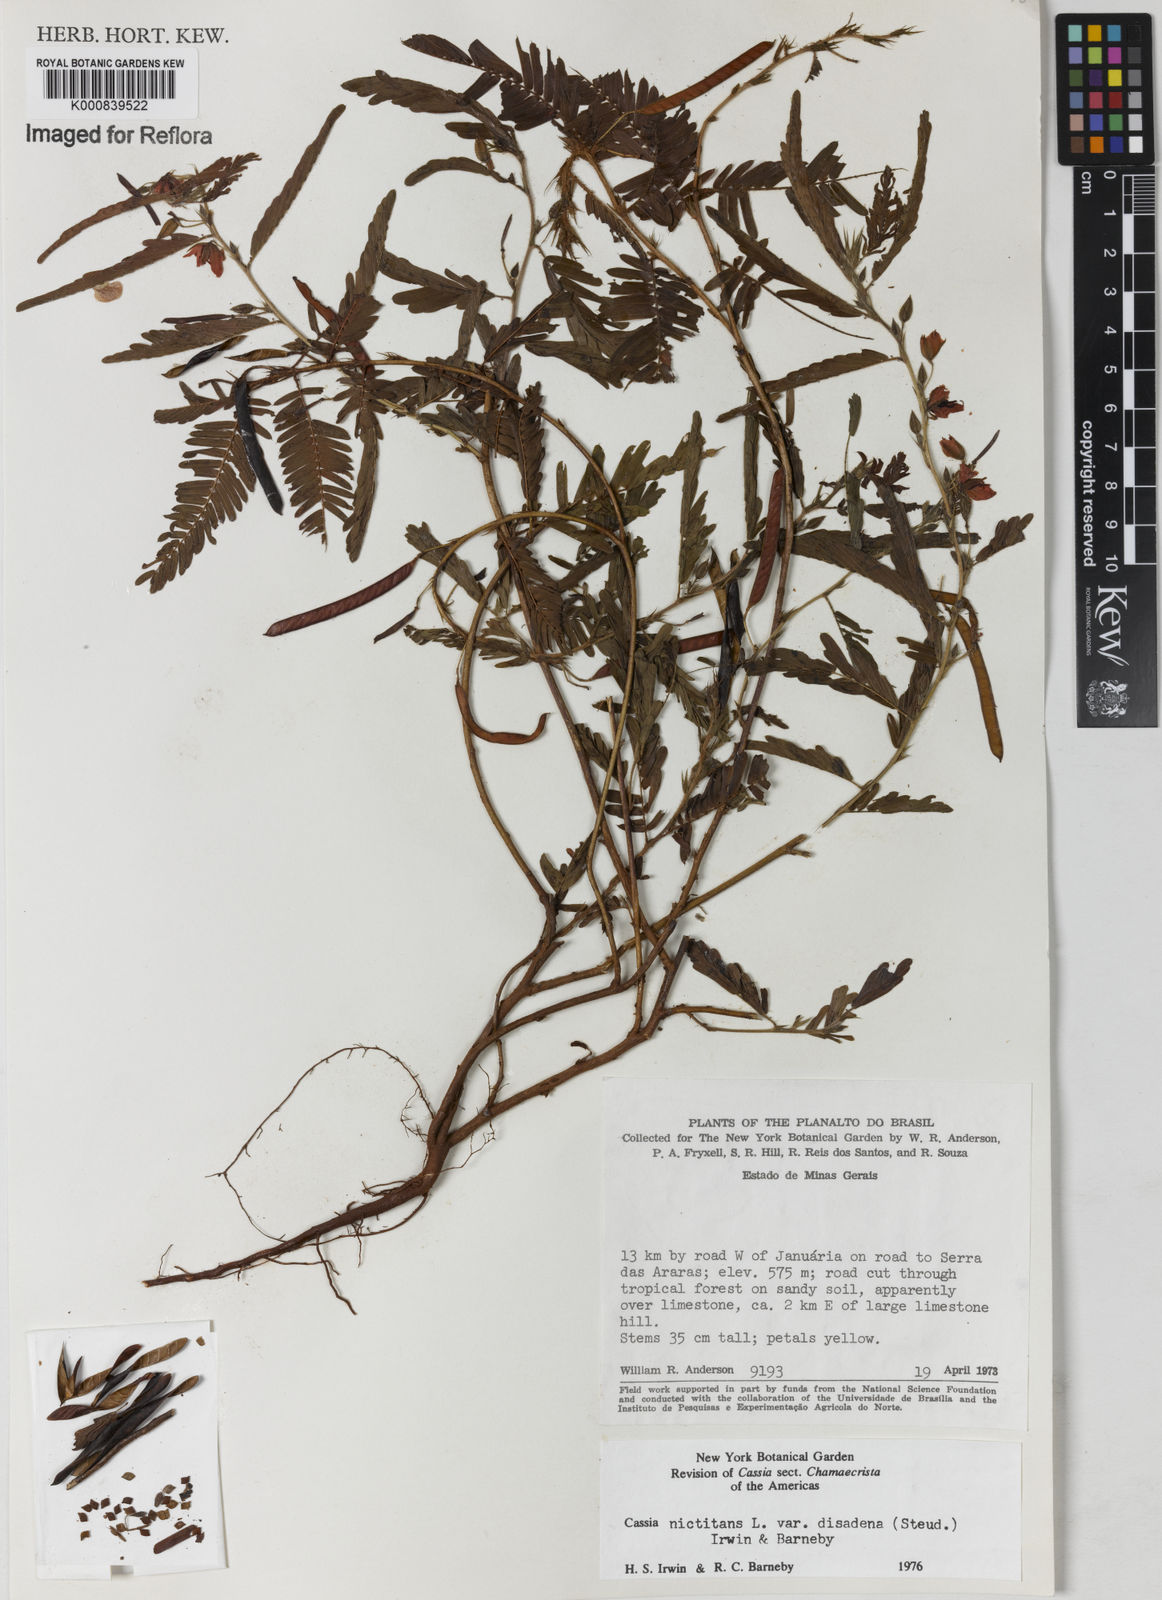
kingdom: Plantae
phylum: Tracheophyta
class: Magnoliopsida
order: Fabales
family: Fabaceae
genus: Chamaecrista
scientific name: Chamaecrista nictitans
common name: Sensitive cassia
